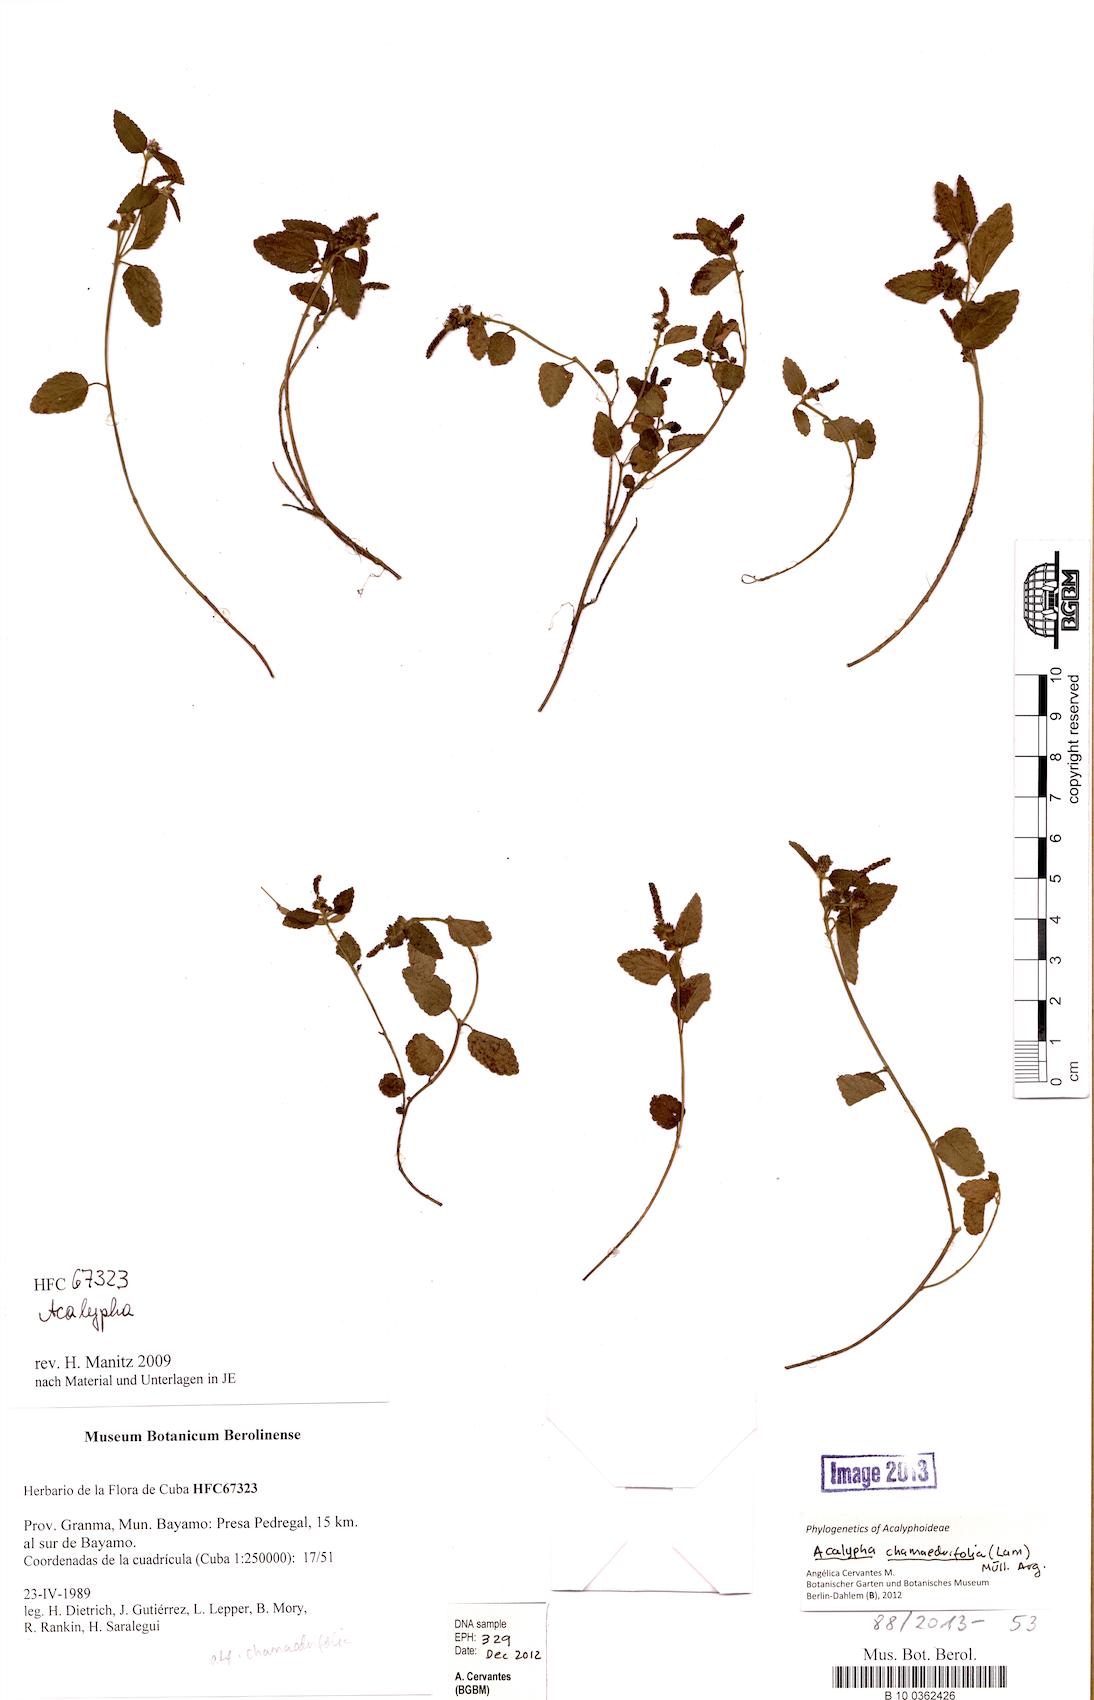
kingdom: Plantae
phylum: Tracheophyta
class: Magnoliopsida
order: Malpighiales
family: Euphorbiaceae
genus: Acalypha
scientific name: Acalypha chamaedrifolia
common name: Bastard copperleaf
